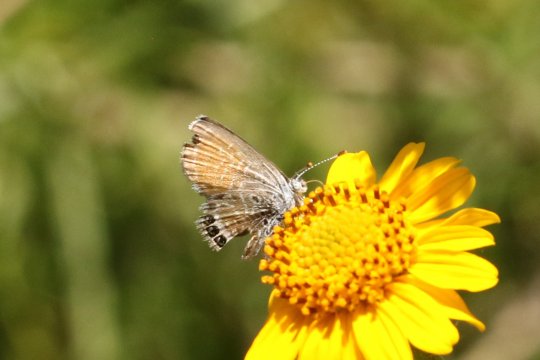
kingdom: Animalia
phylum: Arthropoda
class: Insecta
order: Lepidoptera
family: Lycaenidae
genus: Brephidium
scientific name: Brephidium exilis
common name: Western Pygmy-Blue
